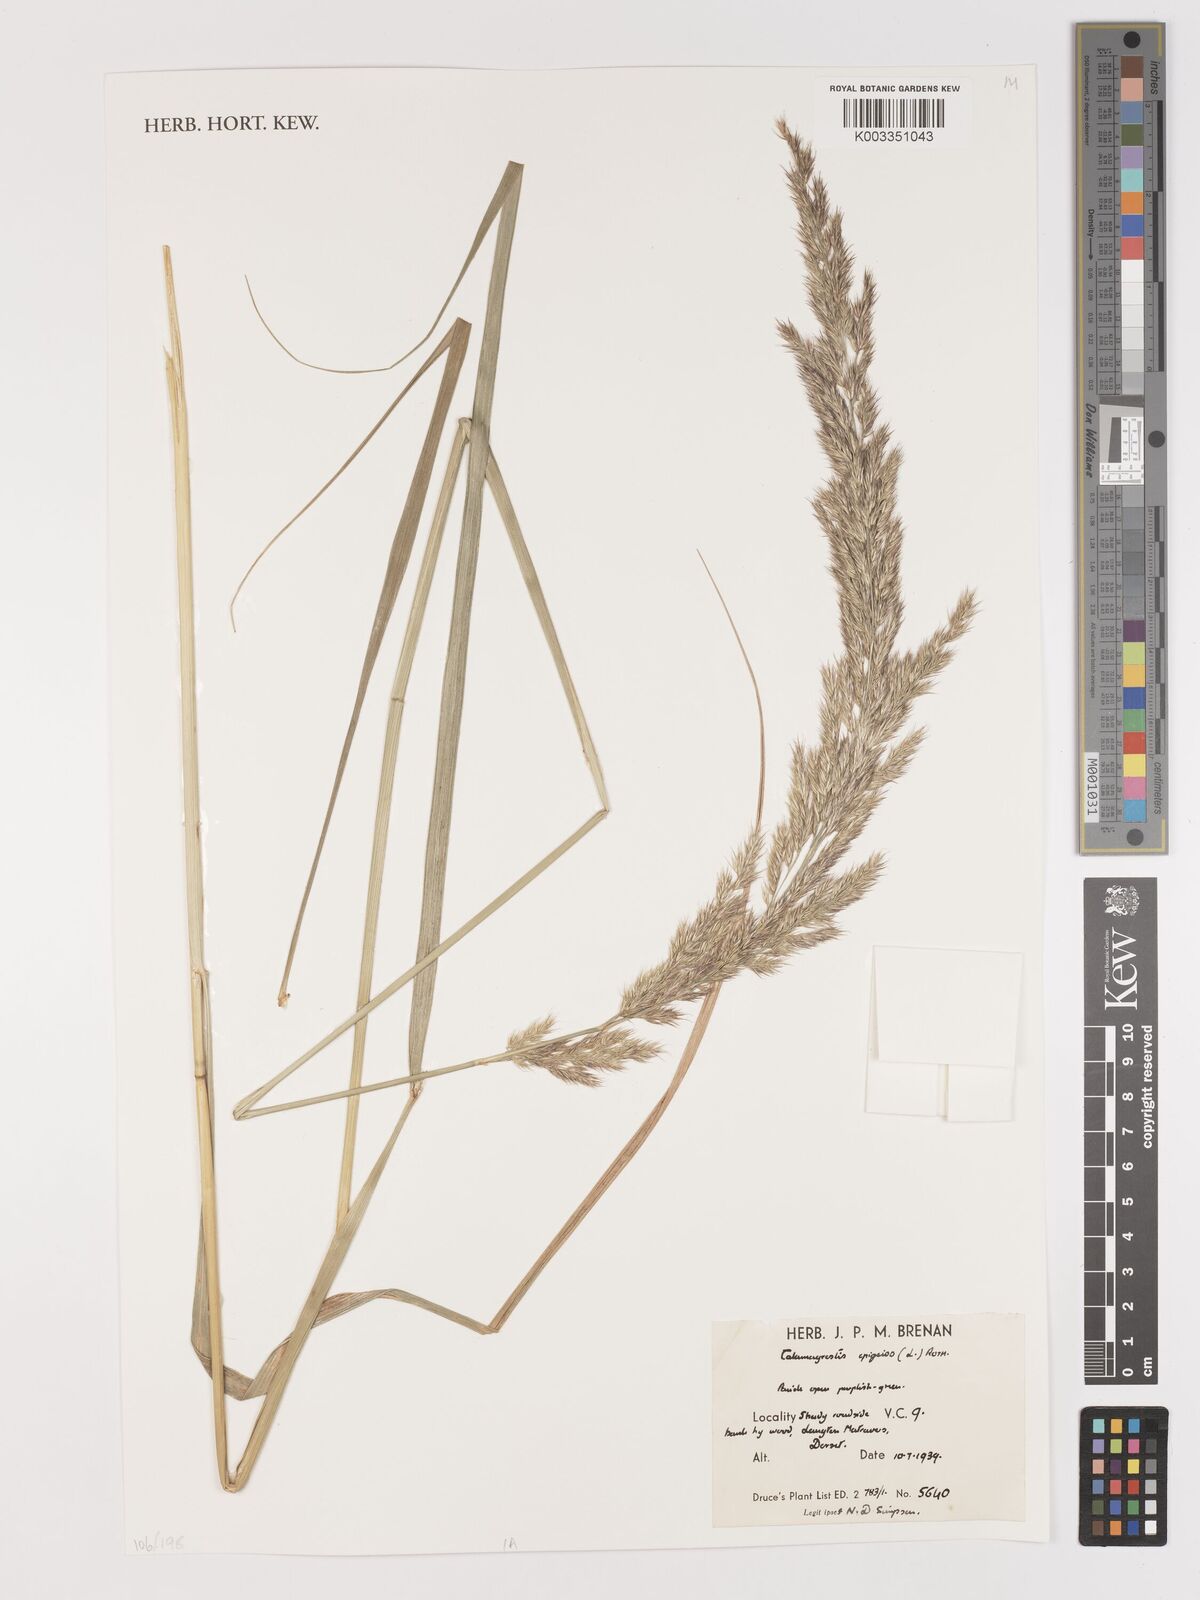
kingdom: Plantae
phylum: Tracheophyta
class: Liliopsida
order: Poales
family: Poaceae
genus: Calamagrostis
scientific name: Calamagrostis epigejos
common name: Wood small-reed
